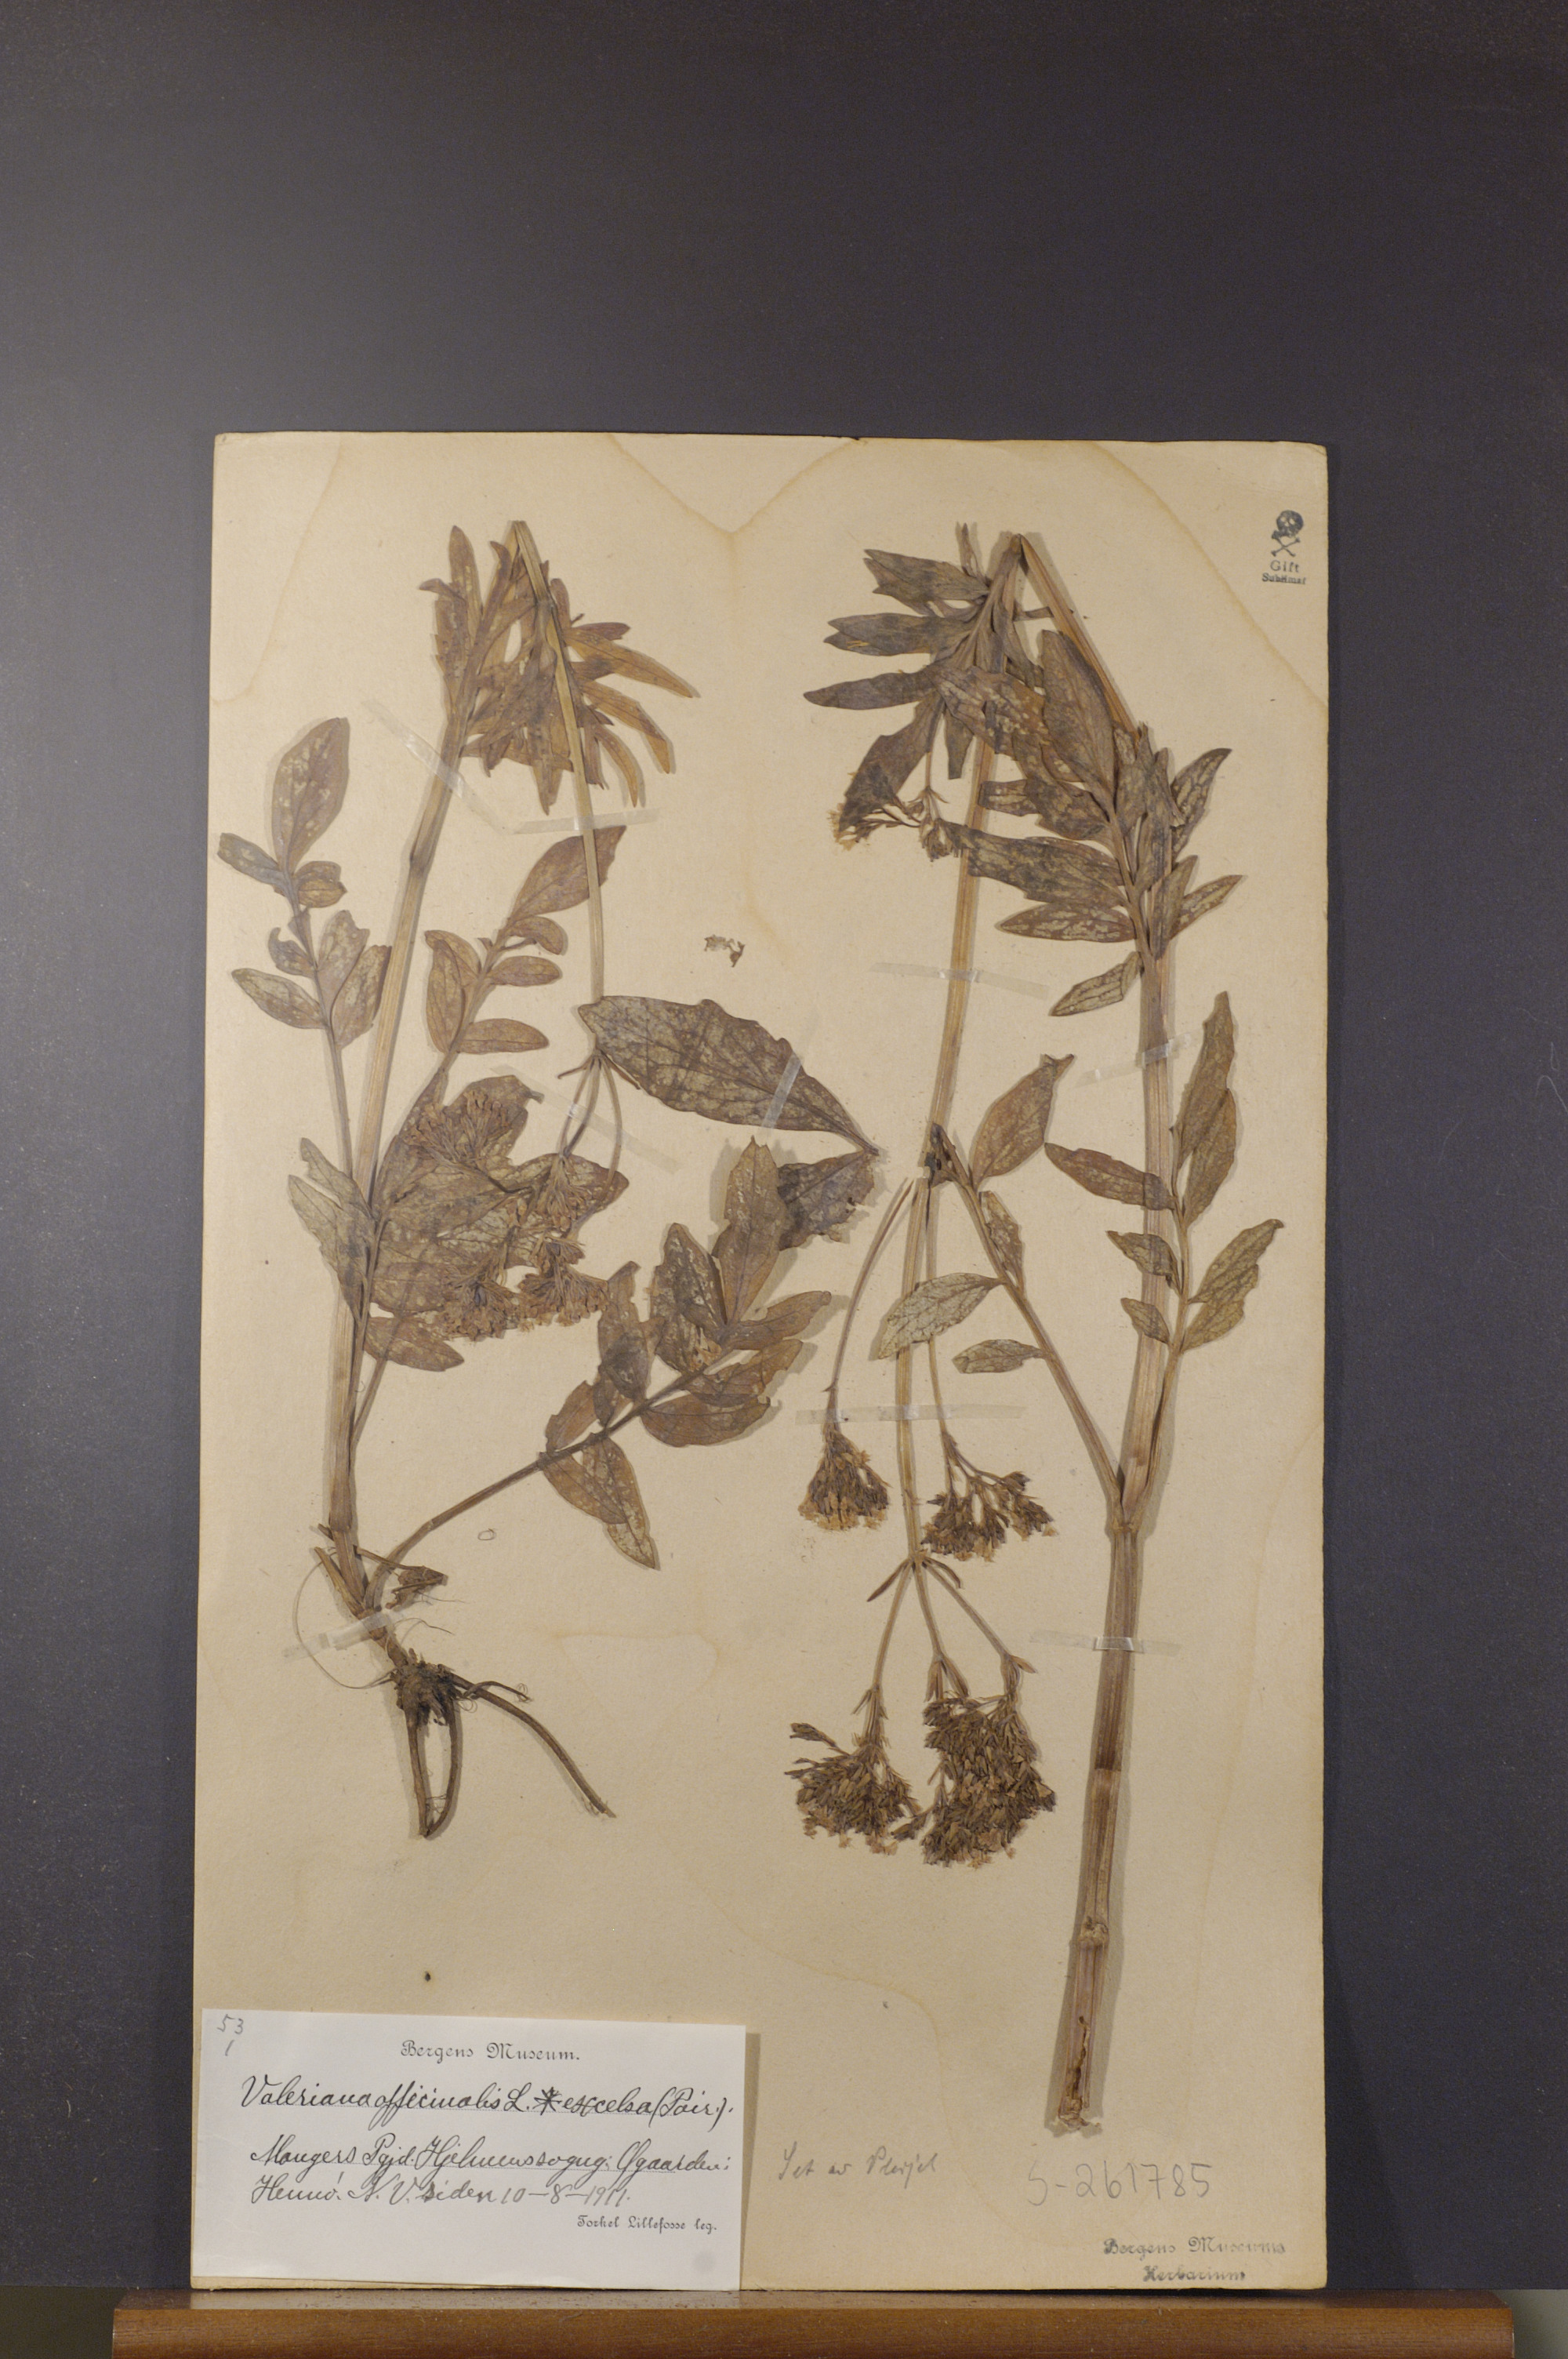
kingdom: Plantae
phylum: Tracheophyta
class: Magnoliopsida
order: Dipsacales
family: Caprifoliaceae
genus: Valeriana
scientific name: Valeriana sambucifolia
